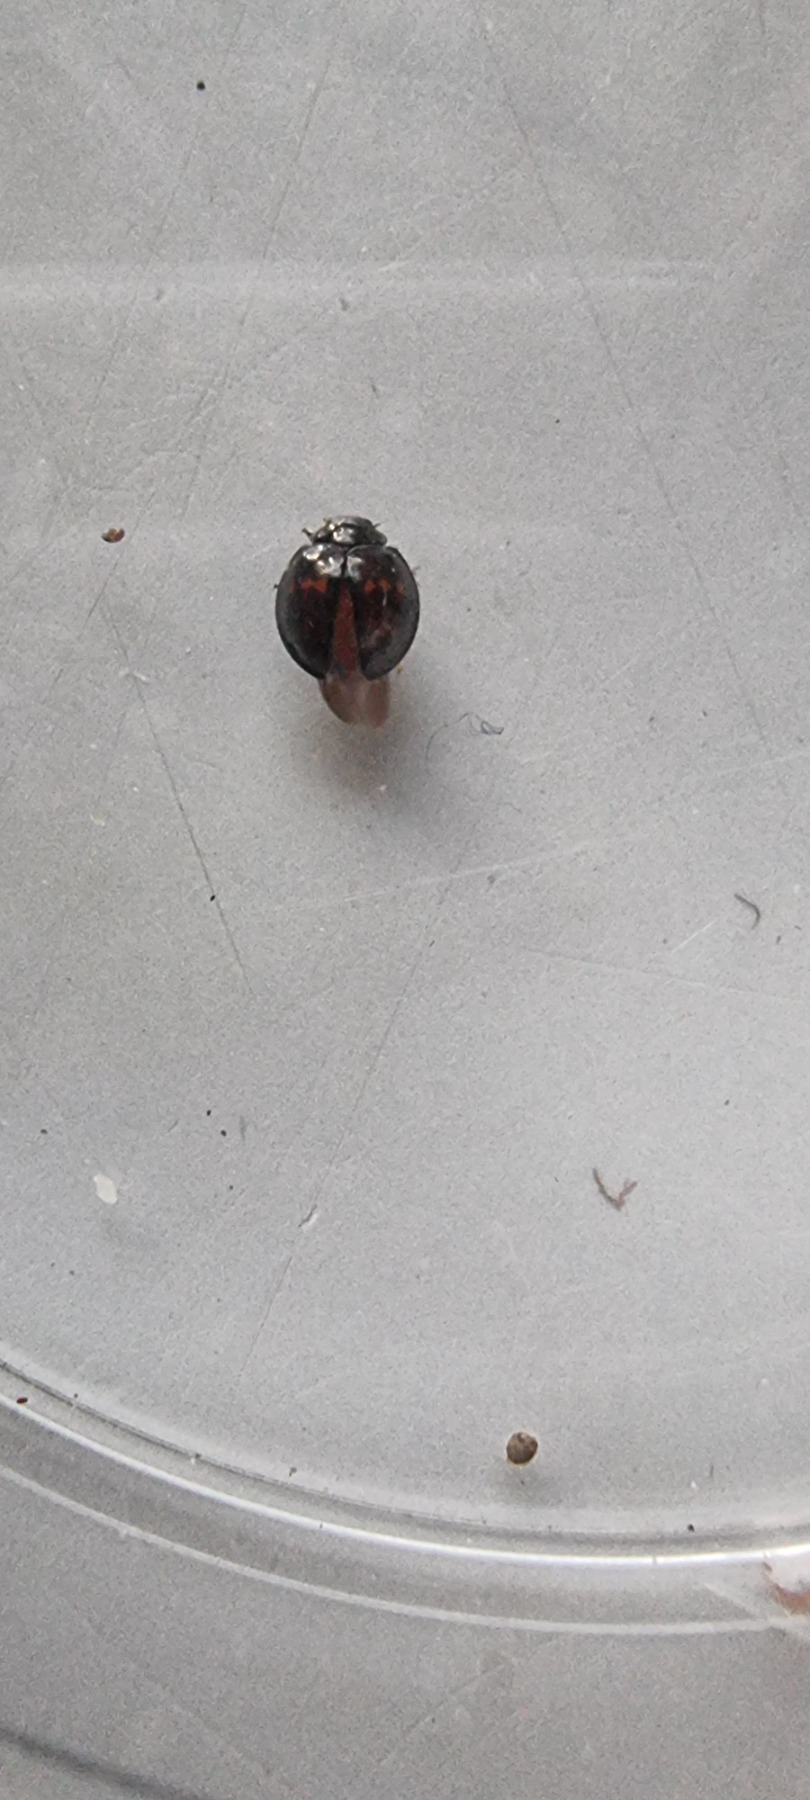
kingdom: Animalia
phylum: Arthropoda
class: Insecta
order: Coleoptera
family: Coccinellidae
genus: Chilocorus
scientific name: Chilocorus bipustulatus
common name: Lyngmariehøne
